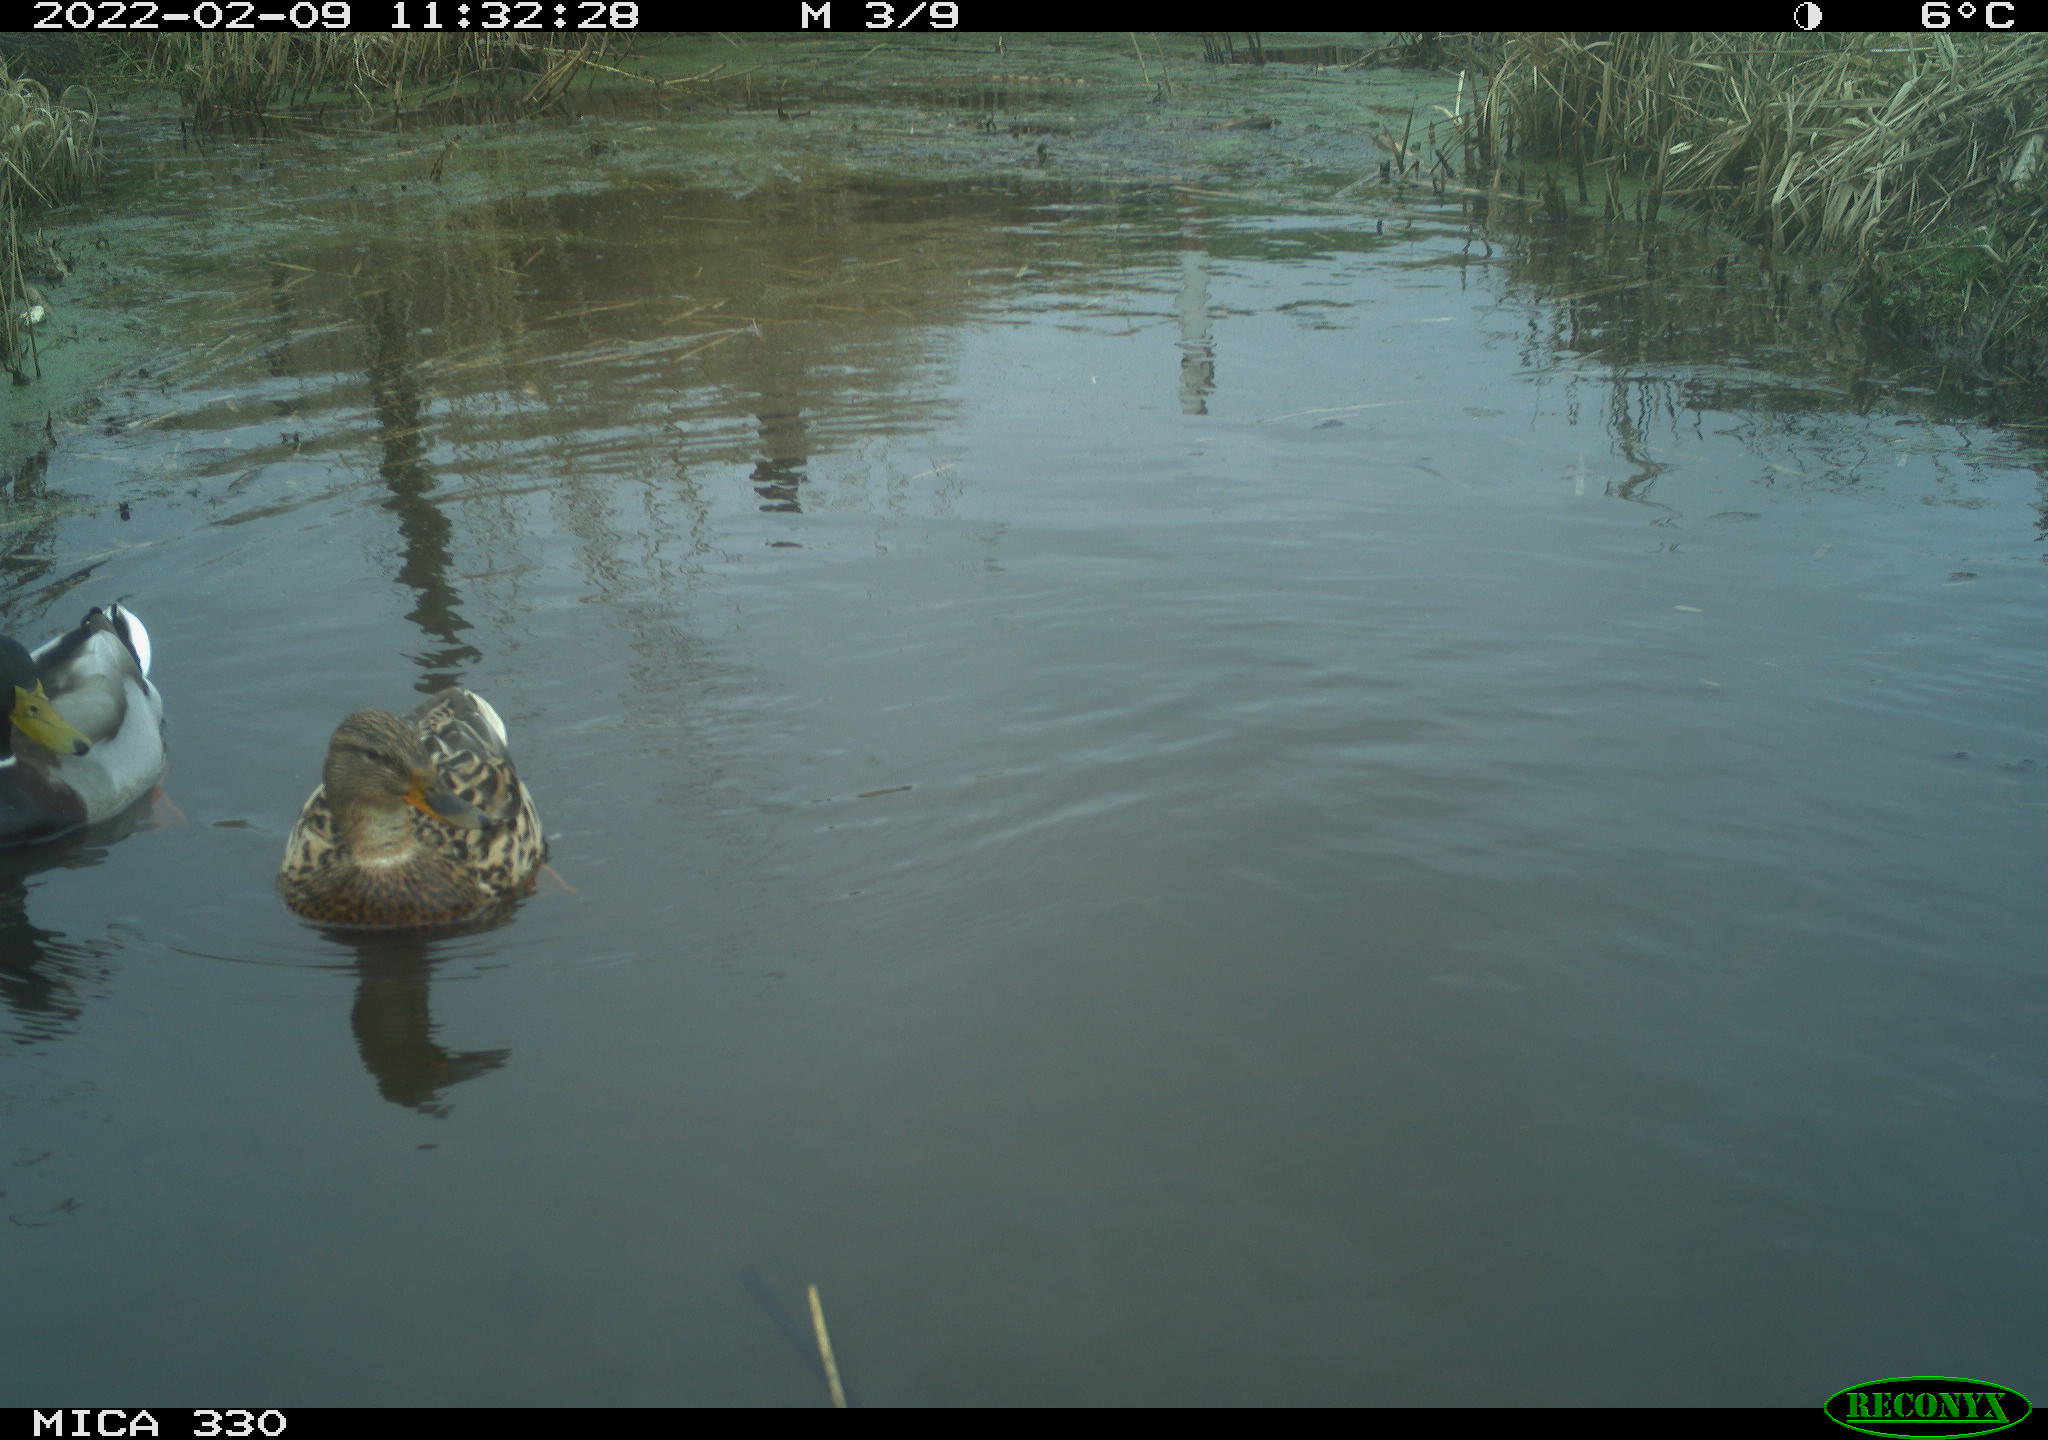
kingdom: Animalia
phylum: Chordata
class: Aves
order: Anseriformes
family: Anatidae
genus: Anas
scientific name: Anas platyrhynchos
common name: Mallard
